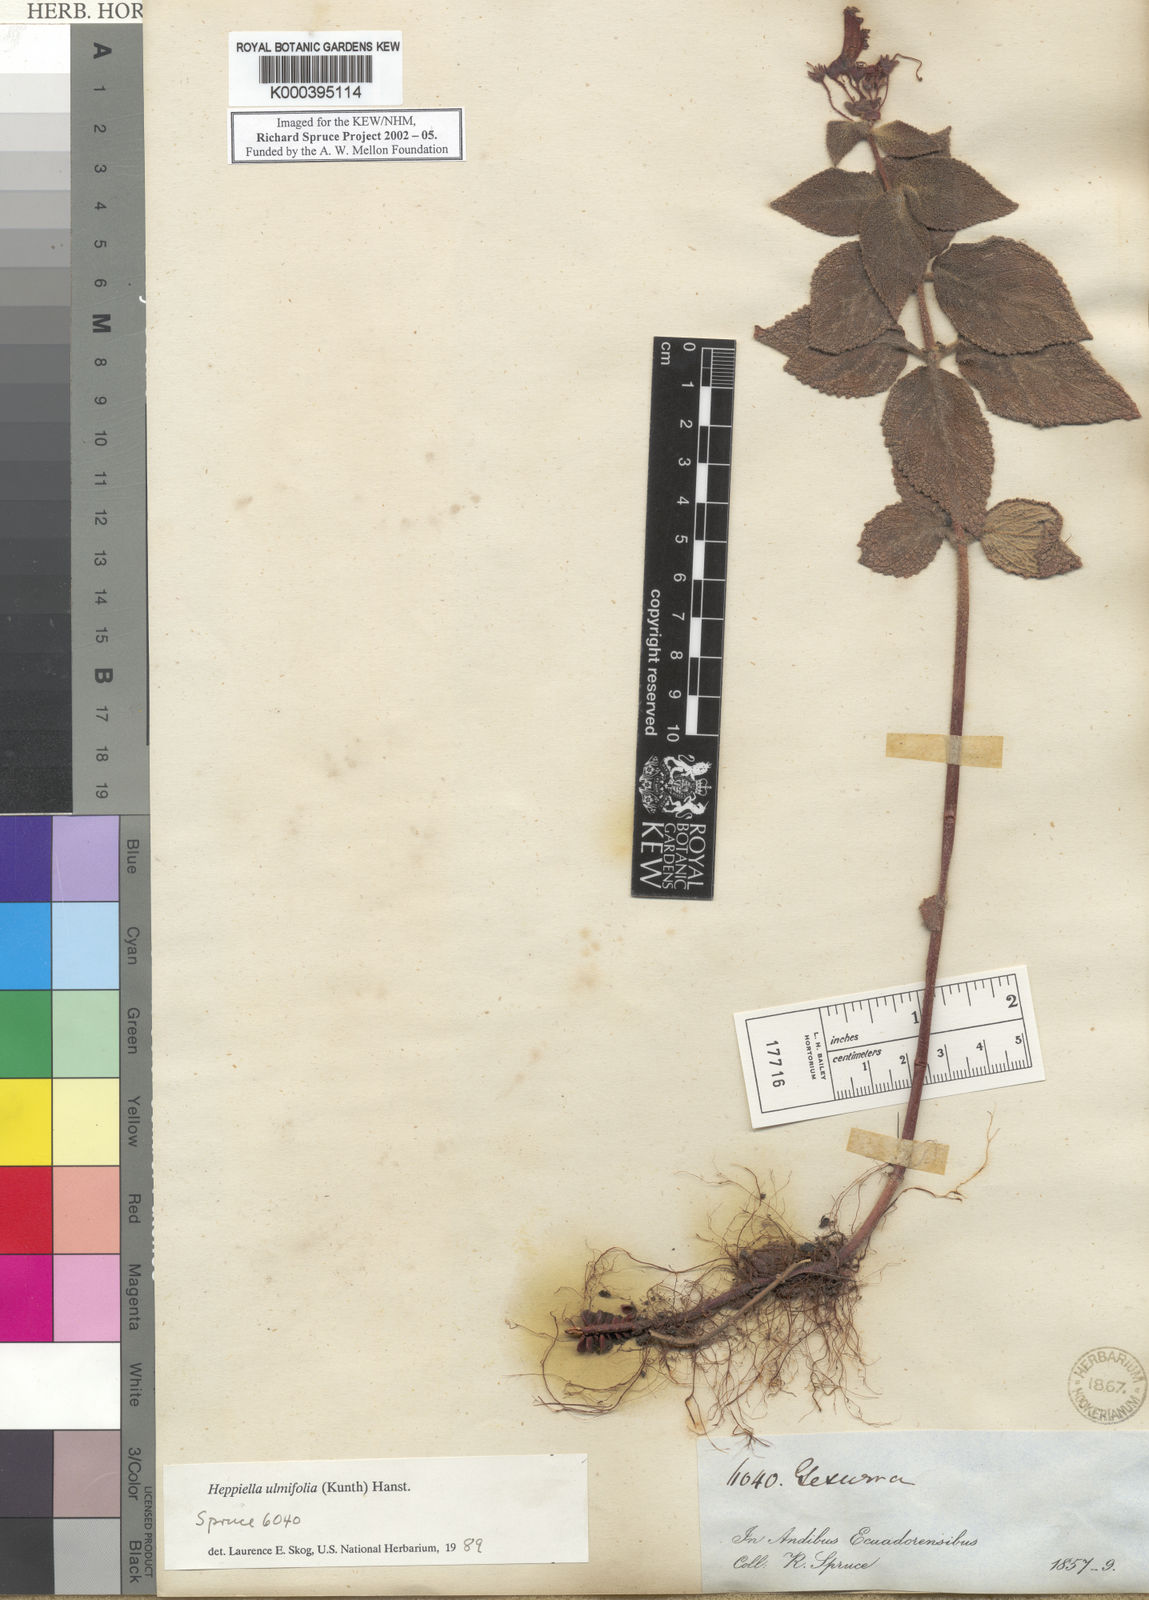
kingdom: Plantae
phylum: Tracheophyta
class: Magnoliopsida
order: Lamiales
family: Gesneriaceae
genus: Heppiella
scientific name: Heppiella ulmifolia
